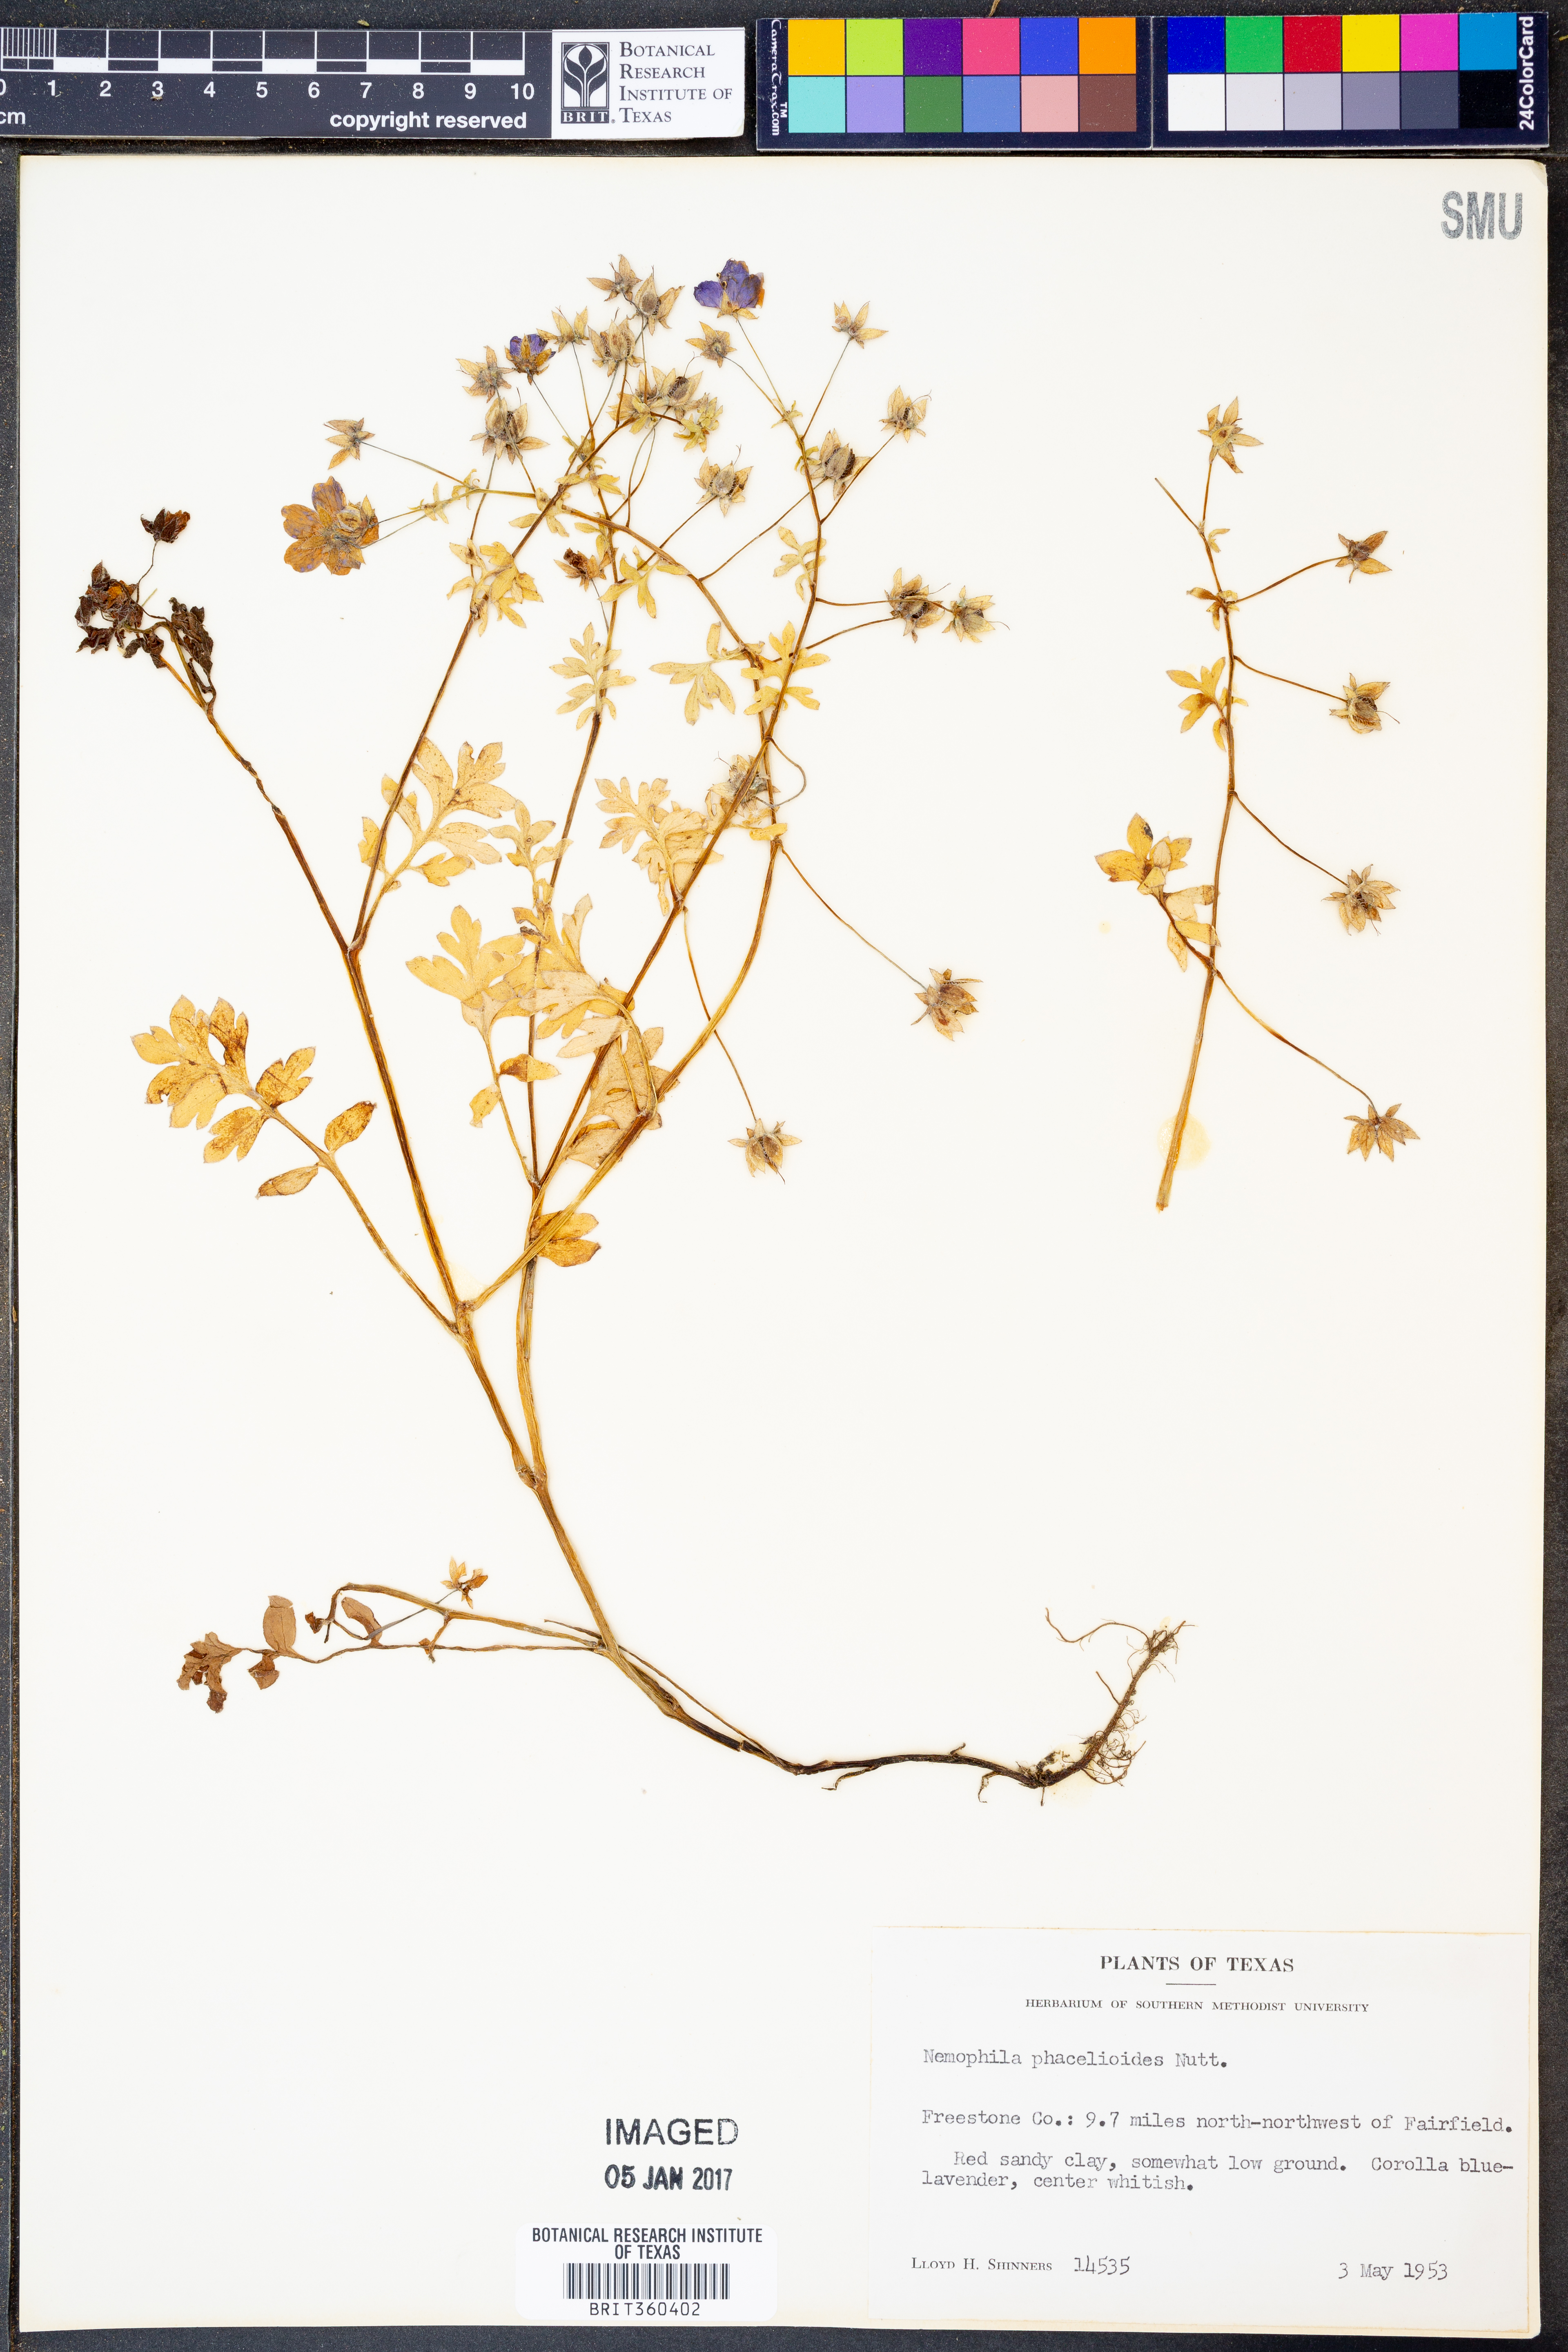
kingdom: Plantae
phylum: Tracheophyta
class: Magnoliopsida
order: Boraginales
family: Hydrophyllaceae
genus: Nemophila
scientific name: Nemophila phacelioides
